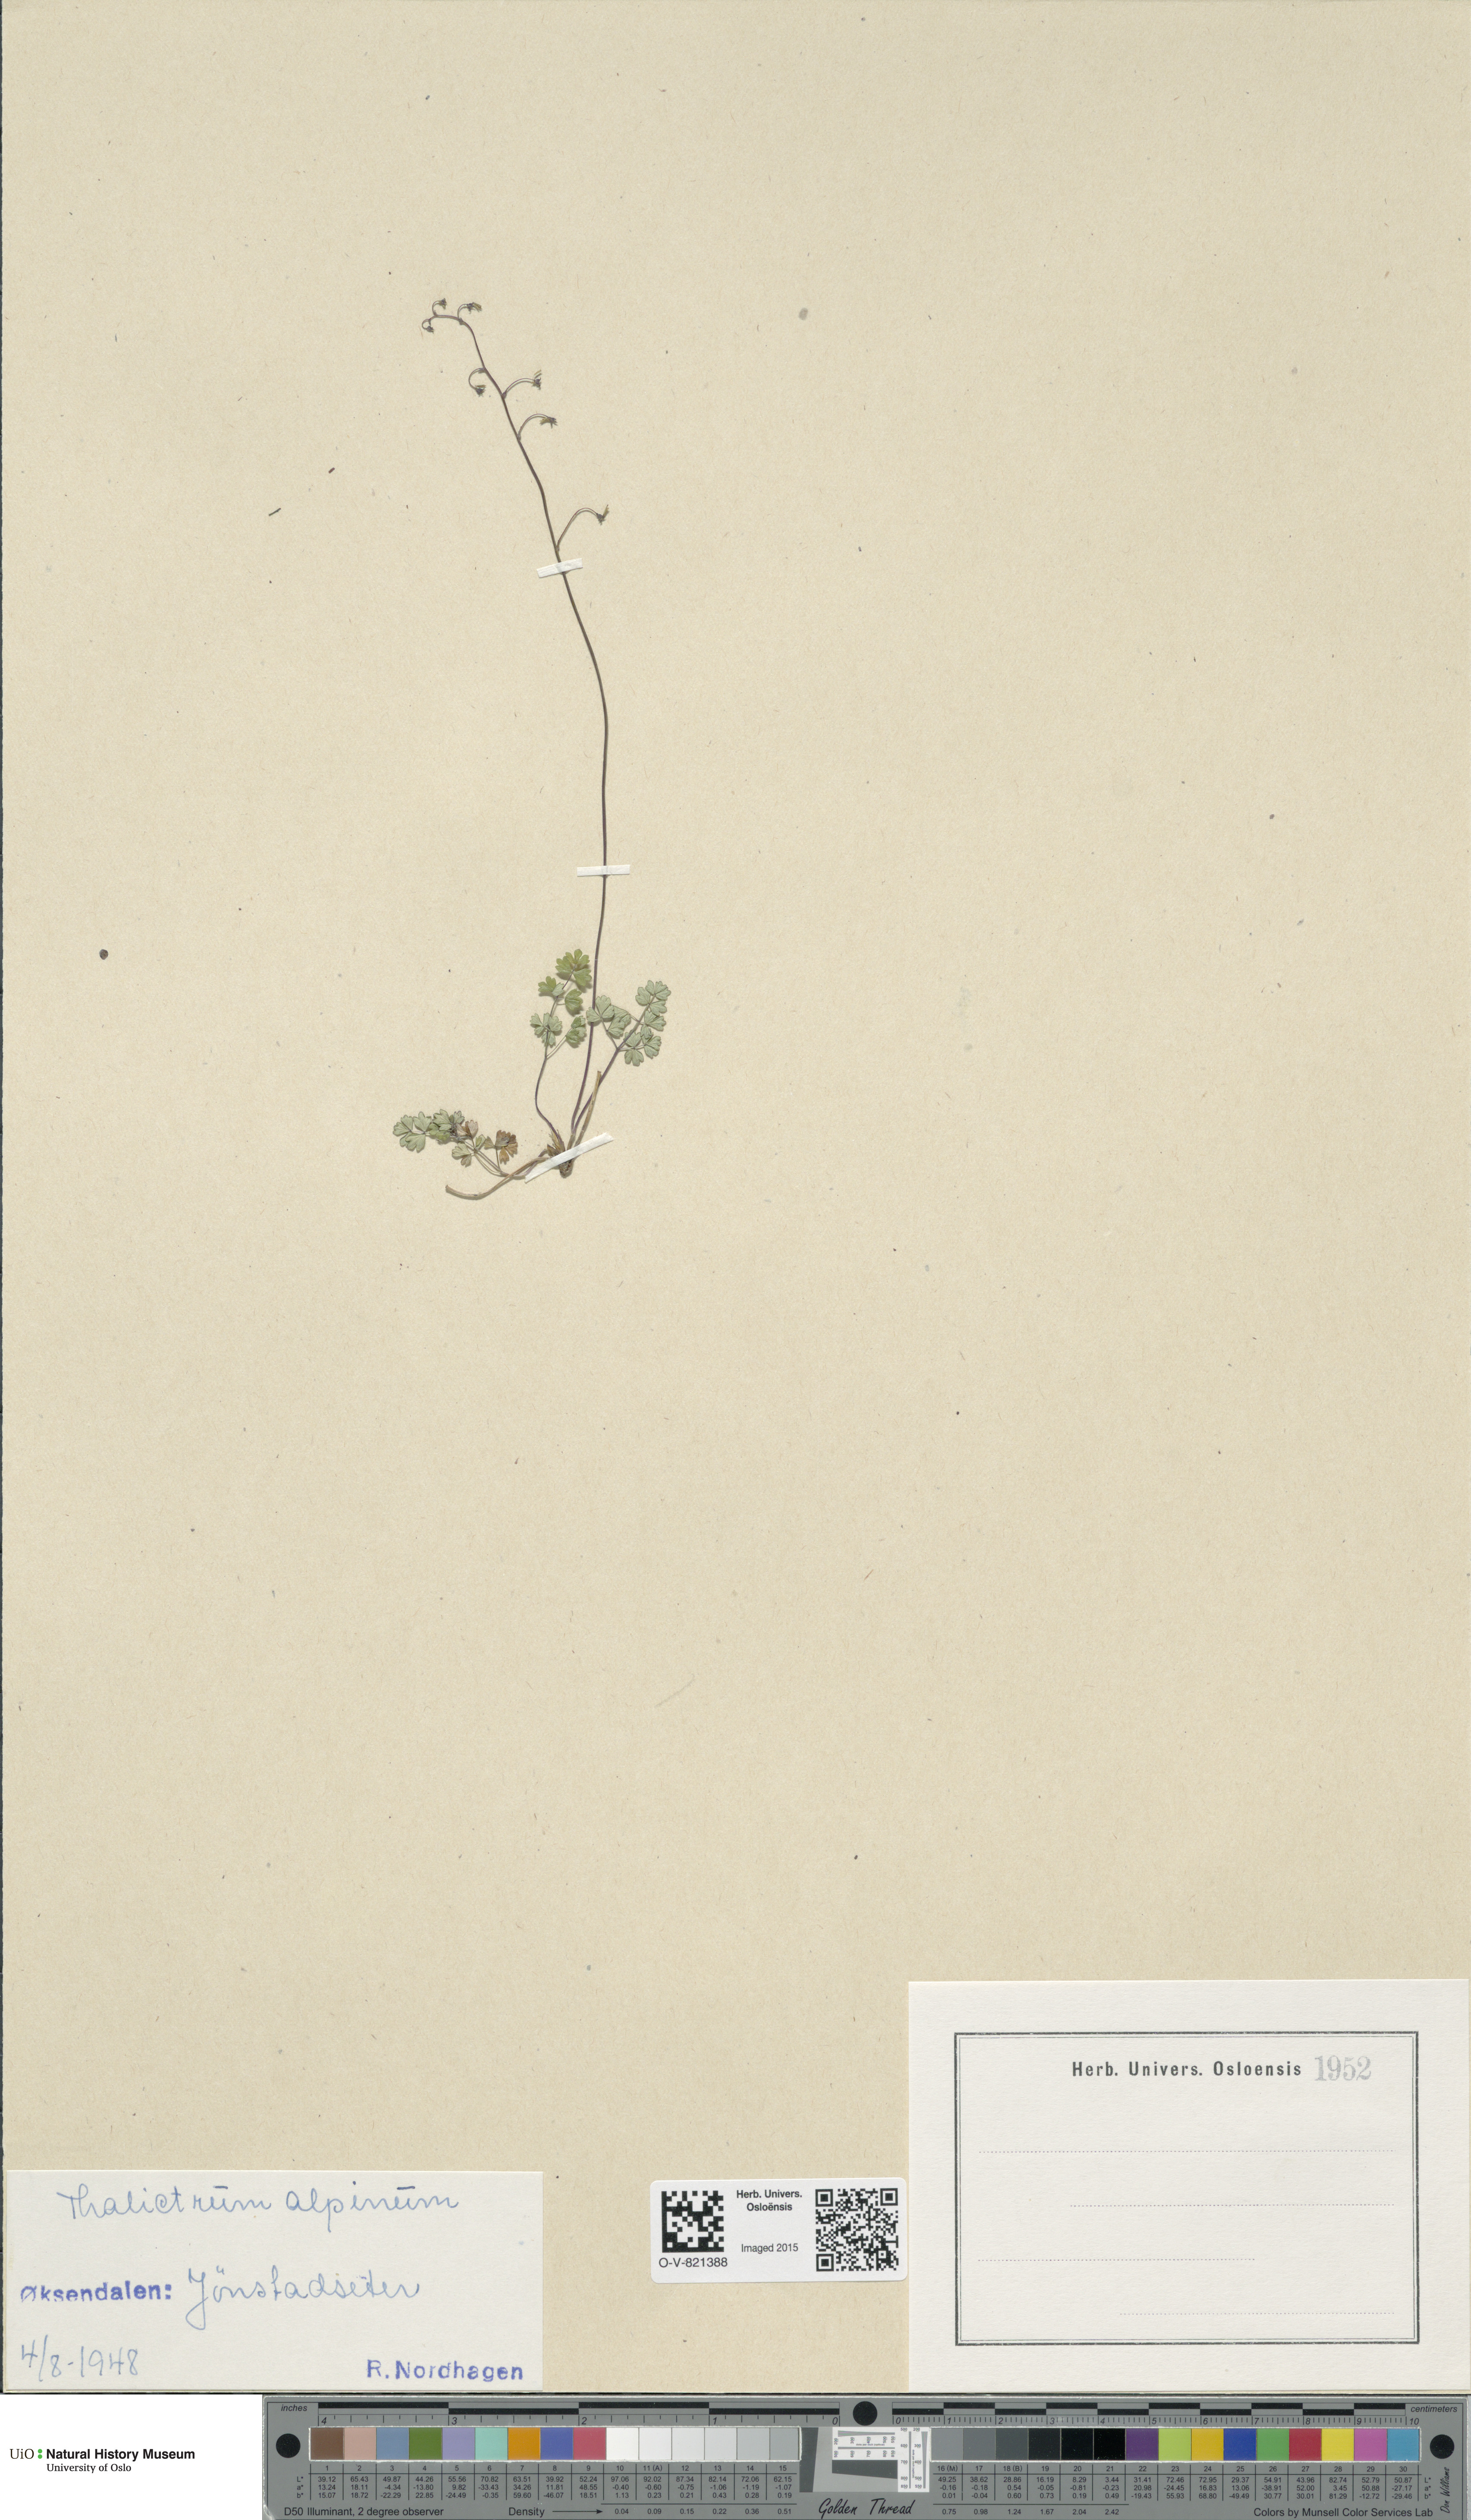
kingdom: Plantae
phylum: Tracheophyta
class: Magnoliopsida
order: Ranunculales
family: Ranunculaceae
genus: Thalictrum
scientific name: Thalictrum alpinum
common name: Alpine meadow-rue
